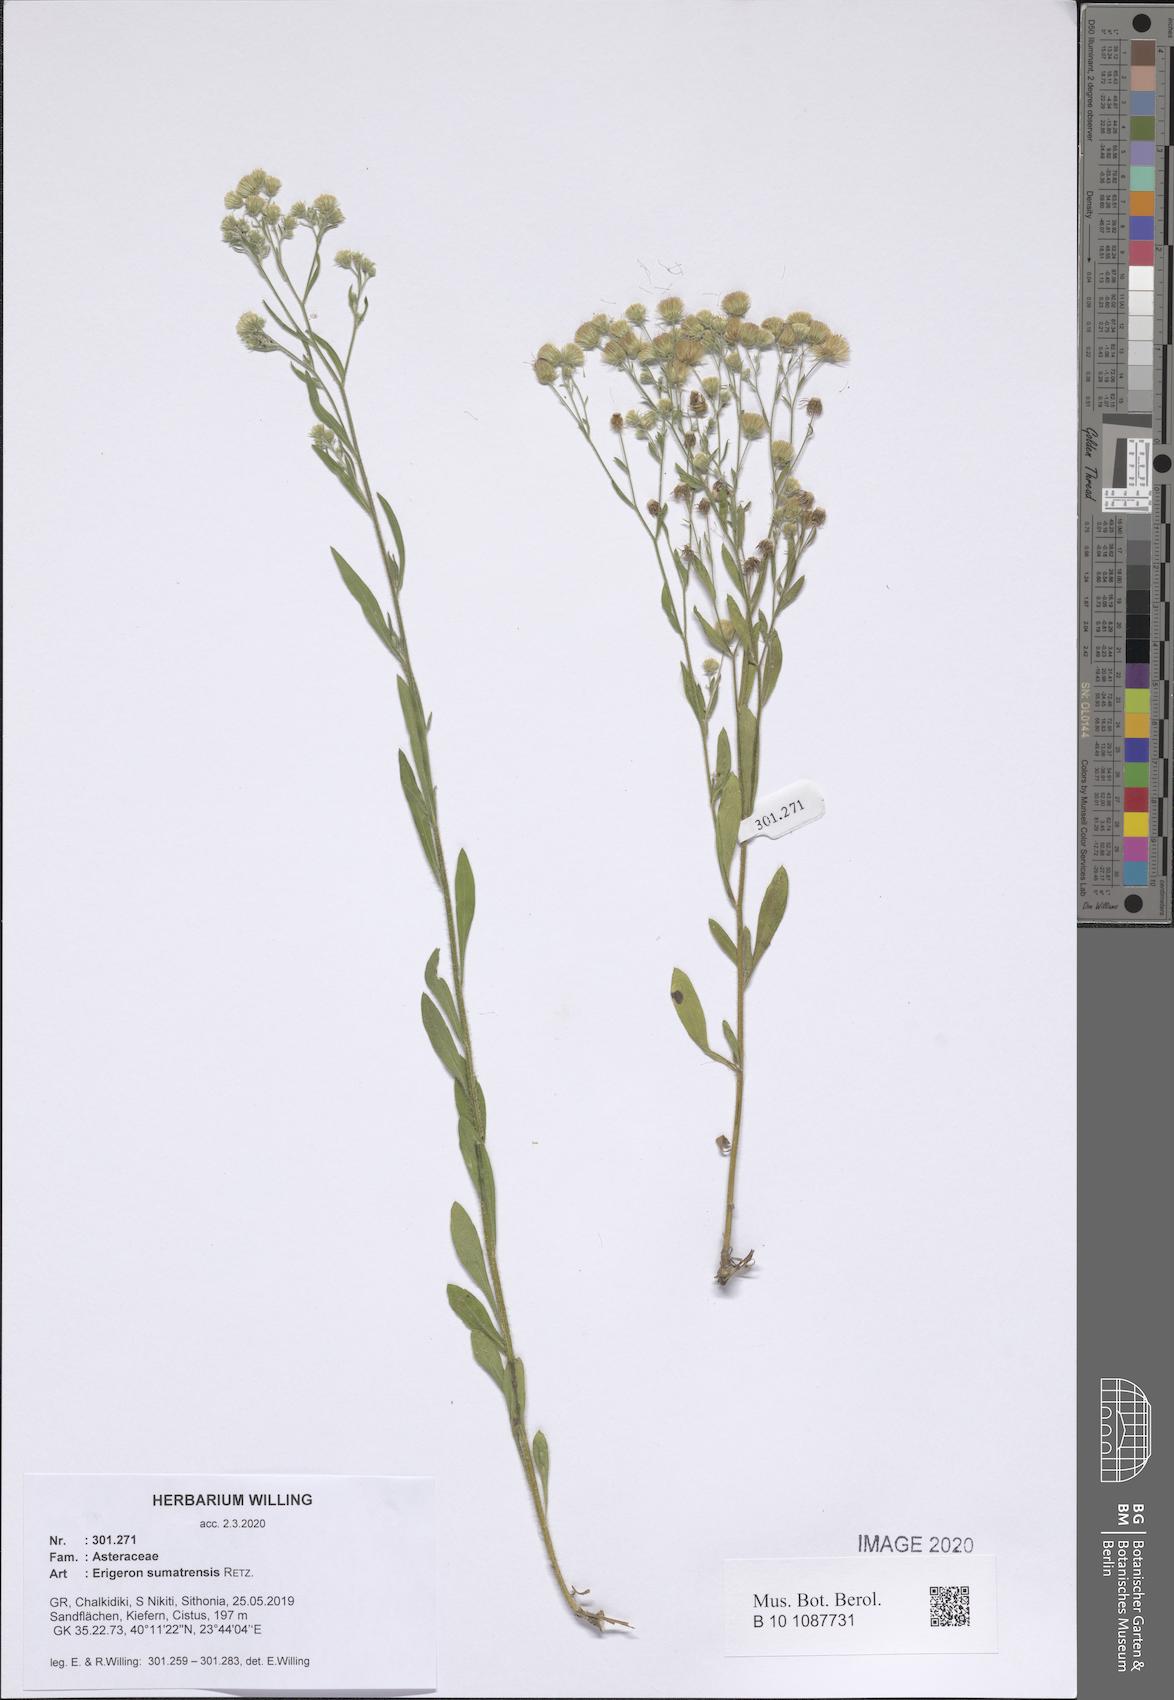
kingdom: Plantae
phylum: Tracheophyta
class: Magnoliopsida
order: Asterales
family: Asteraceae
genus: Erigeron
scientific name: Erigeron sumatrensis
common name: Daisy
